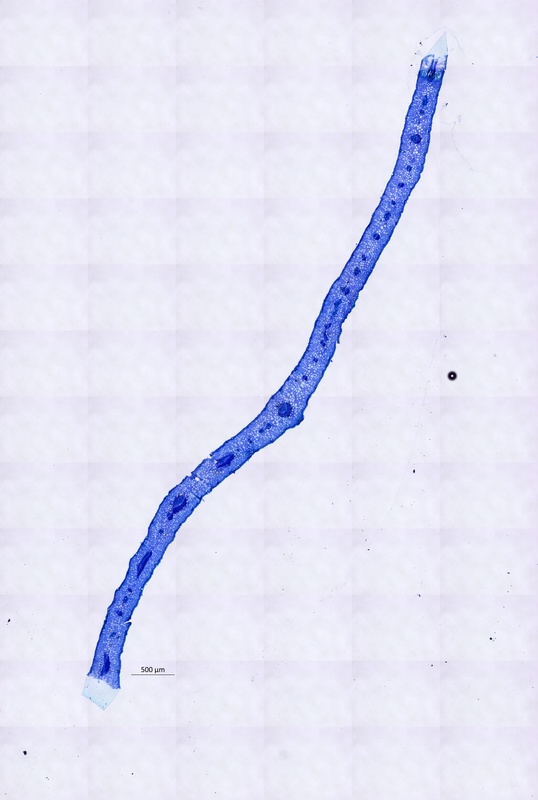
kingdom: Plantae
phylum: Tracheophyta
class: Magnoliopsida
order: Zygophyllales
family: Zygophyllaceae
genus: Balanites
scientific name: Balanites pedicellaris
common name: Small green-thorn
